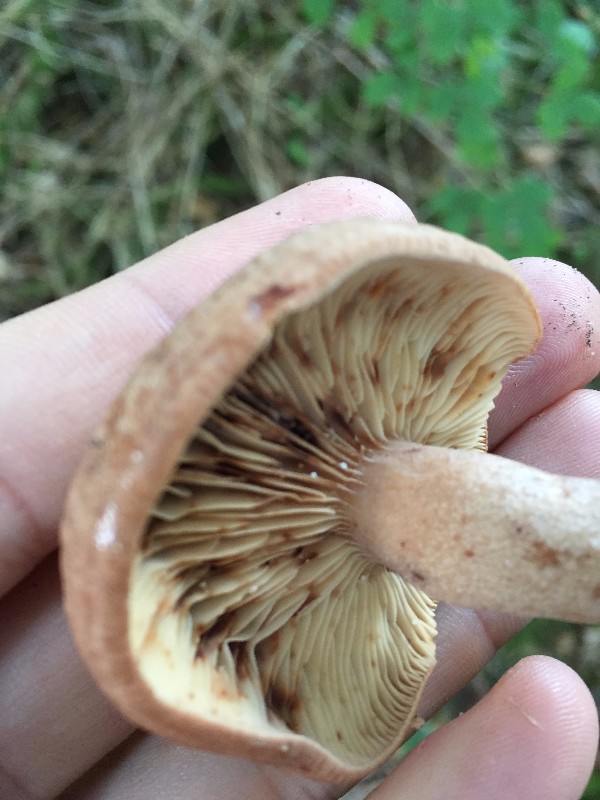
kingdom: Fungi
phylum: Basidiomycota
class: Agaricomycetes
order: Russulales
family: Russulaceae
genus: Lactarius
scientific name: Lactarius quietus
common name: ege-mælkehat
